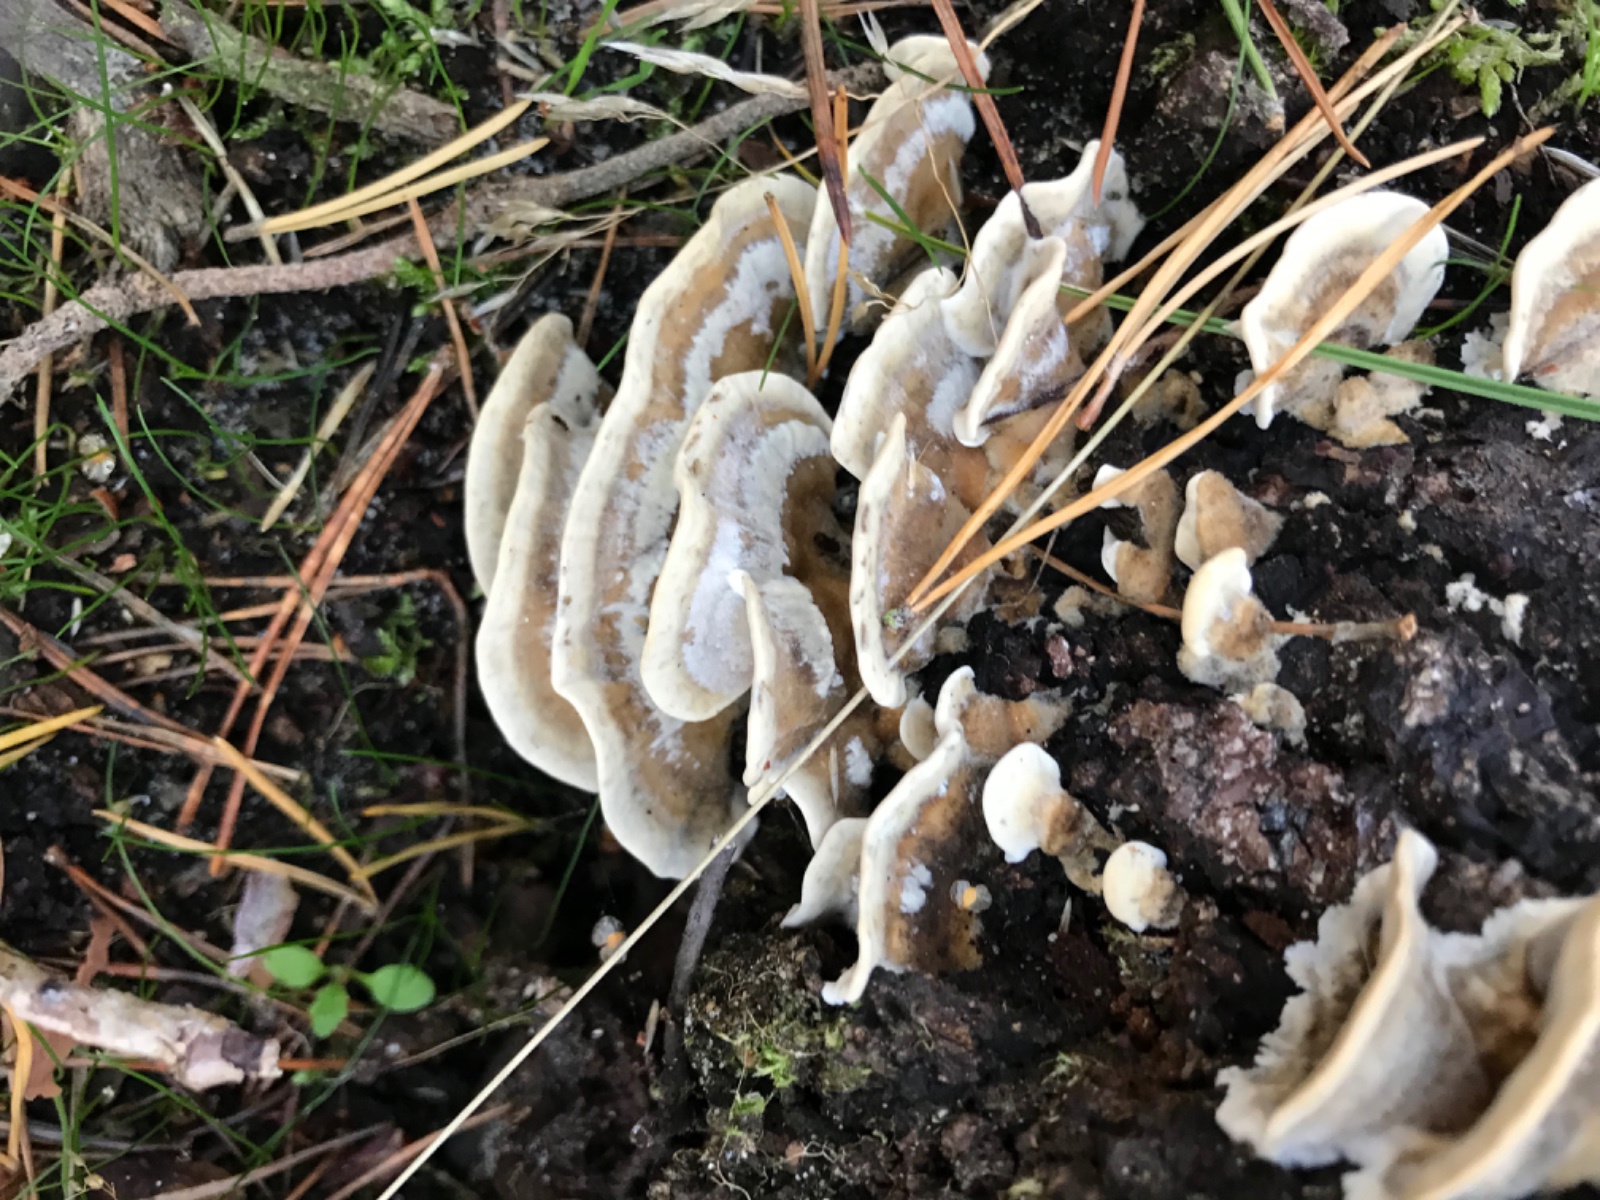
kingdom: Fungi
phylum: Basidiomycota
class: Agaricomycetes
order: Polyporales
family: Phanerochaetaceae
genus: Bjerkandera
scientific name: Bjerkandera adusta
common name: sveden sodporesvamp
